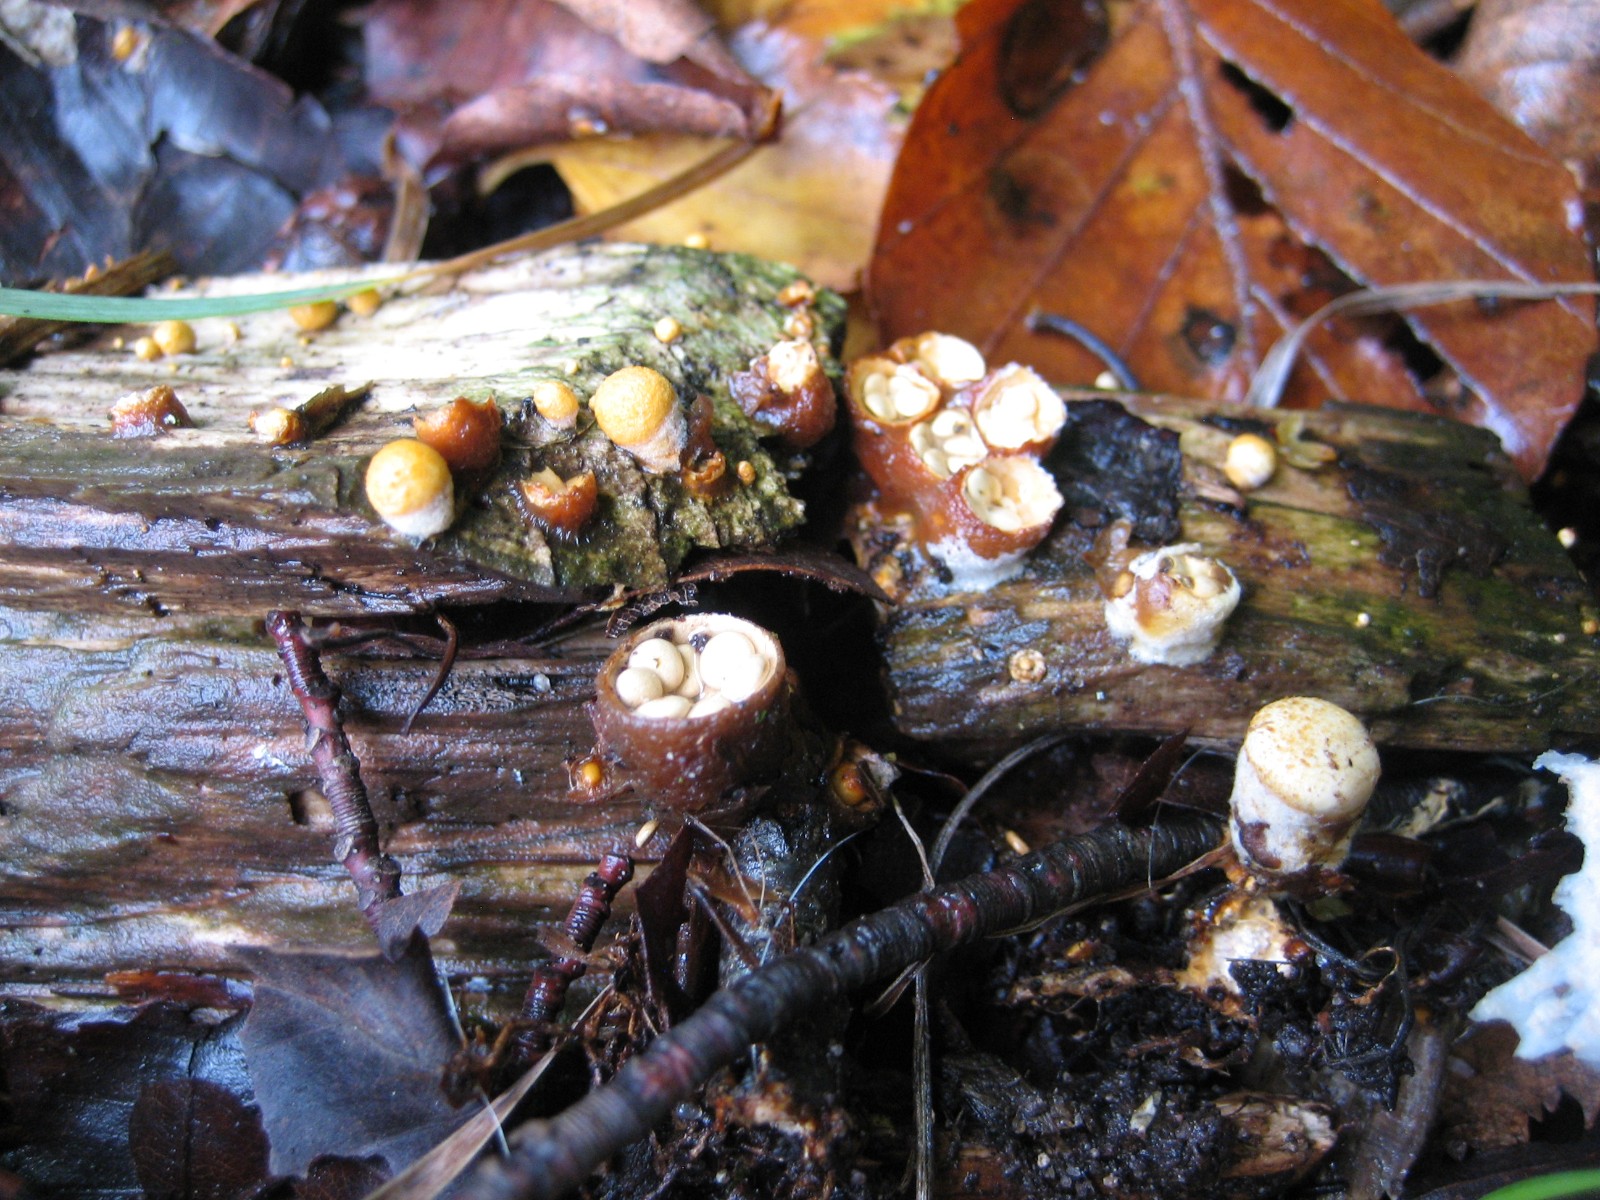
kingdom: Fungi
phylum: Basidiomycota
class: Agaricomycetes
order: Agaricales
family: Nidulariaceae
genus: Crucibulum
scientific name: Crucibulum crucibuliforme
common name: krukkesvamp
